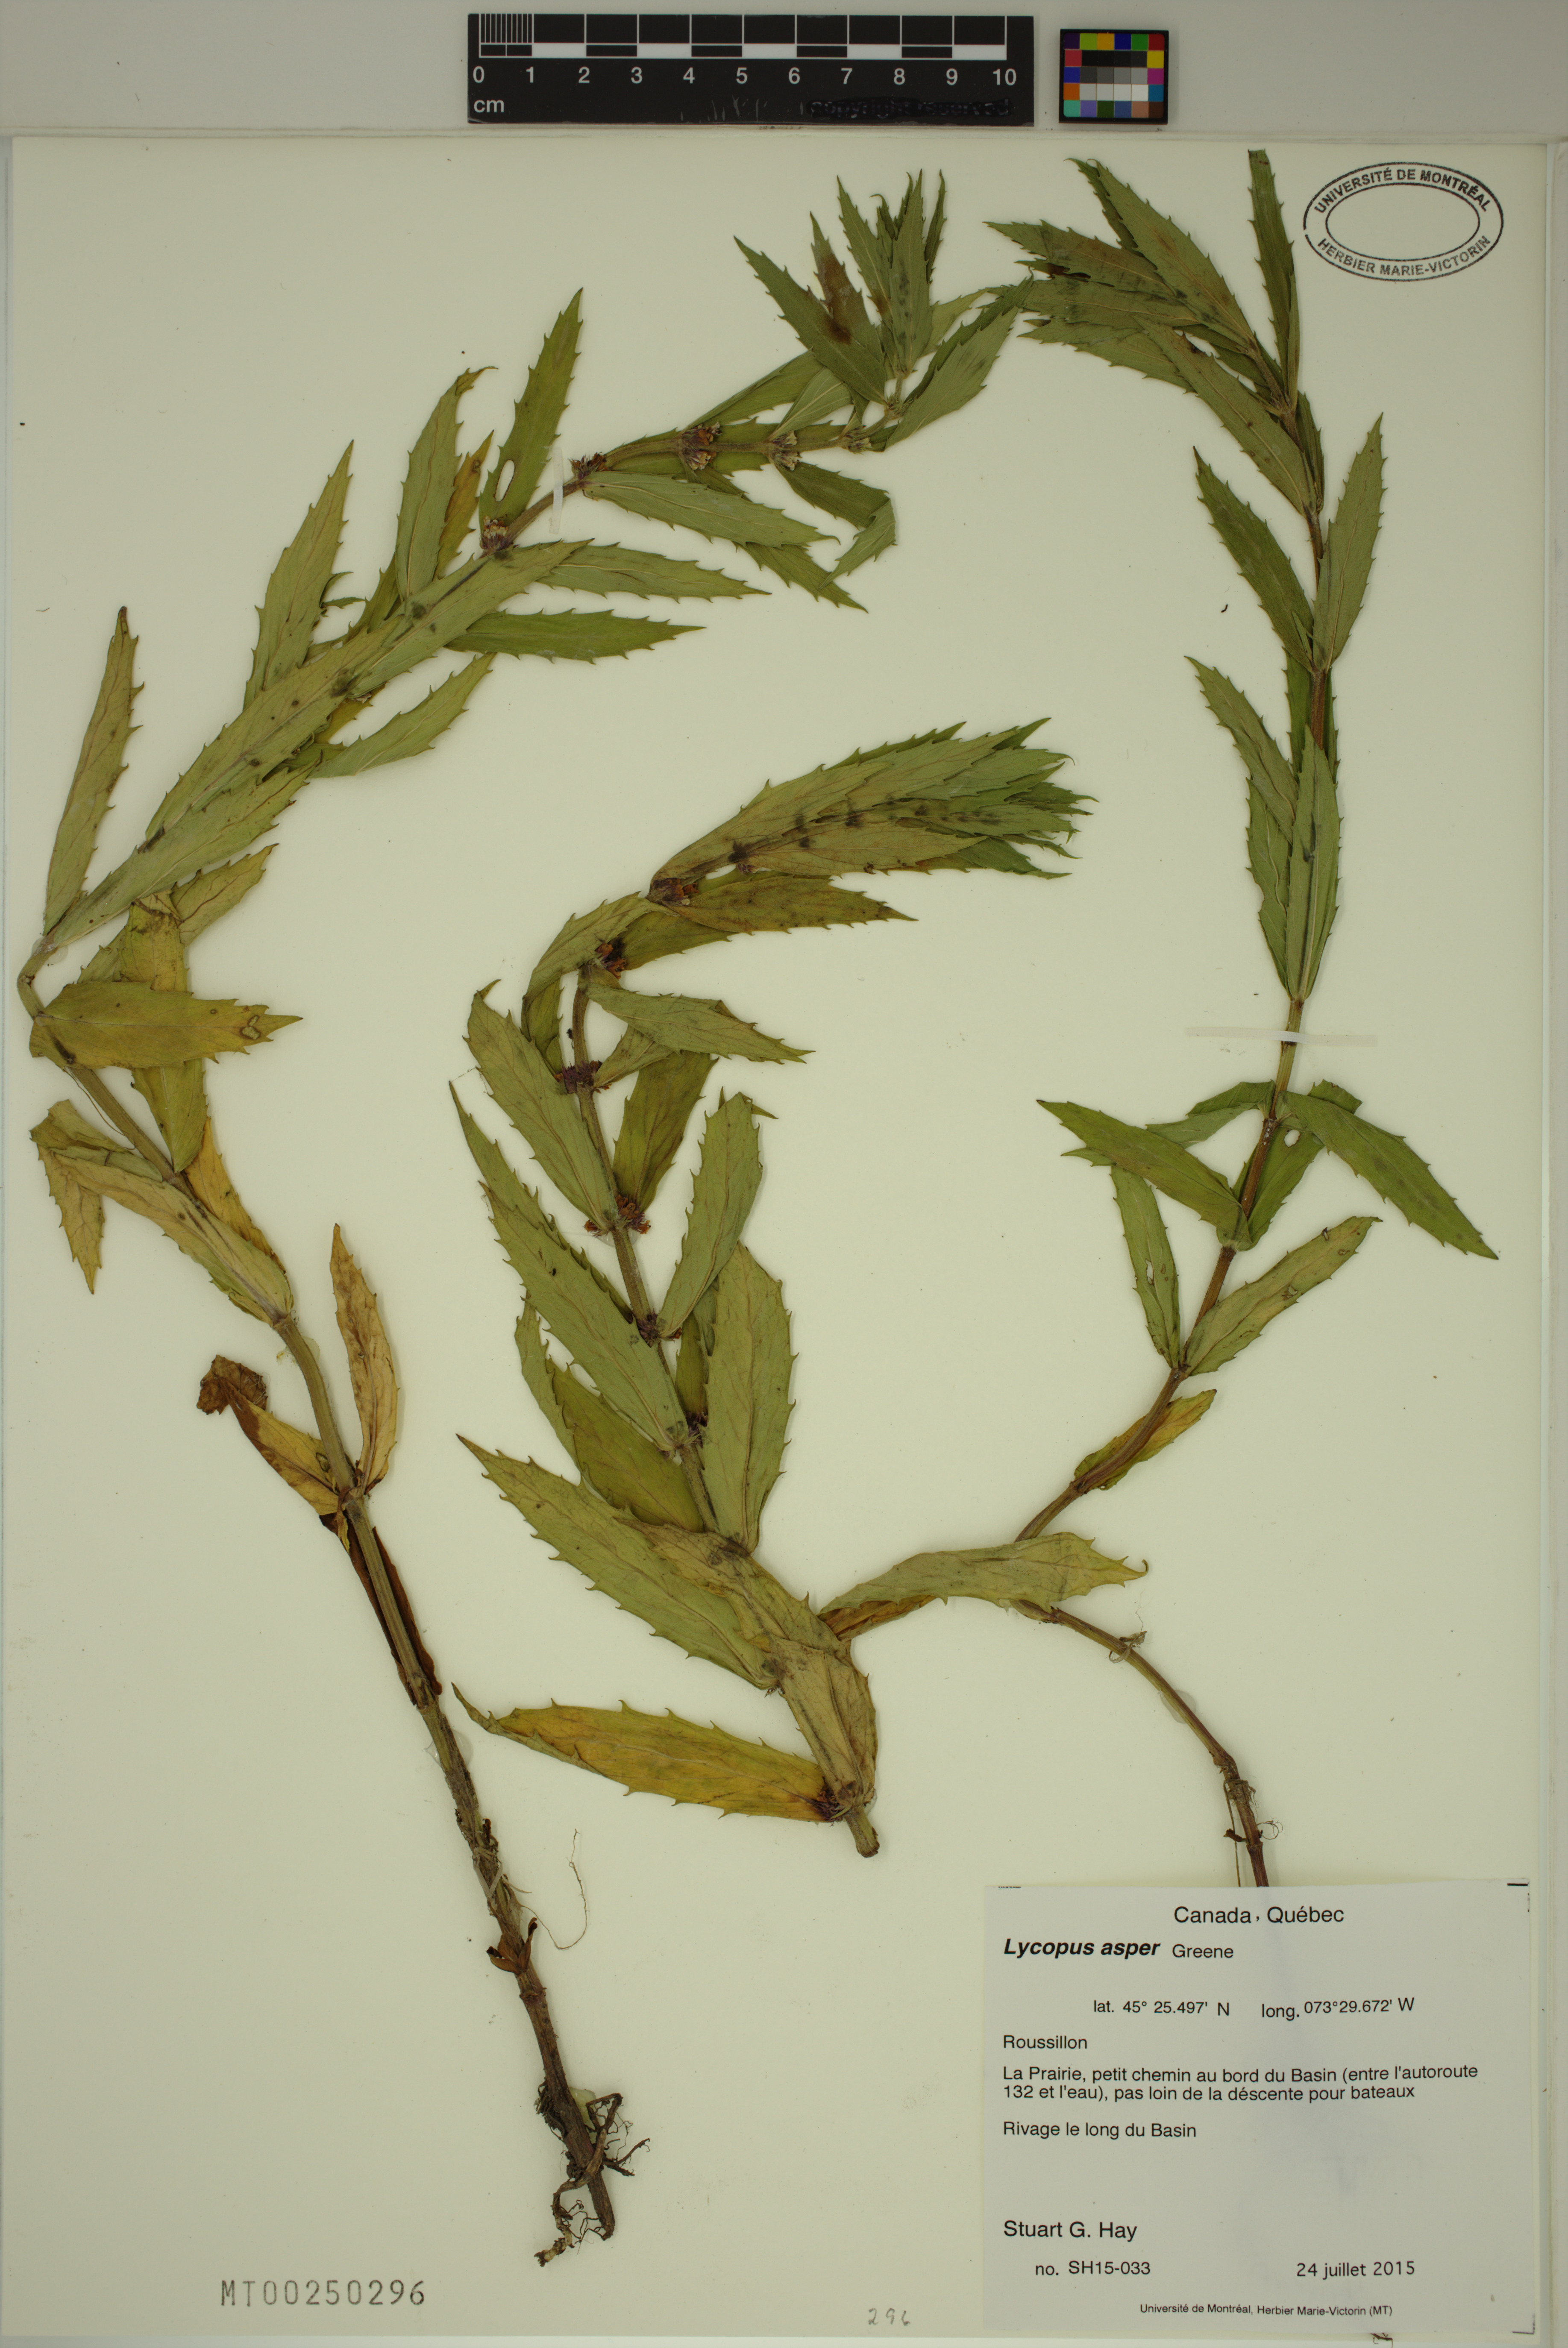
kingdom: Plantae
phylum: Tracheophyta
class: Magnoliopsida
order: Lamiales
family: Lamiaceae
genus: Lycopus
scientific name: Lycopus asper
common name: Rough water-horehound
